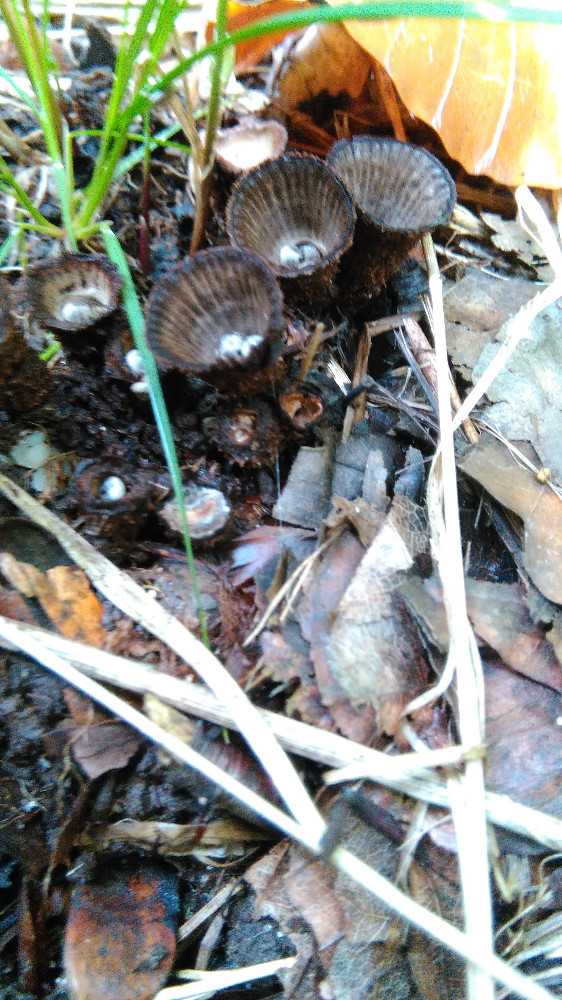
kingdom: Fungi
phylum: Basidiomycota
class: Agaricomycetes
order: Agaricales
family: Agaricaceae
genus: Cyathus
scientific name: Cyathus striatus
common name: stribet redesvamp
